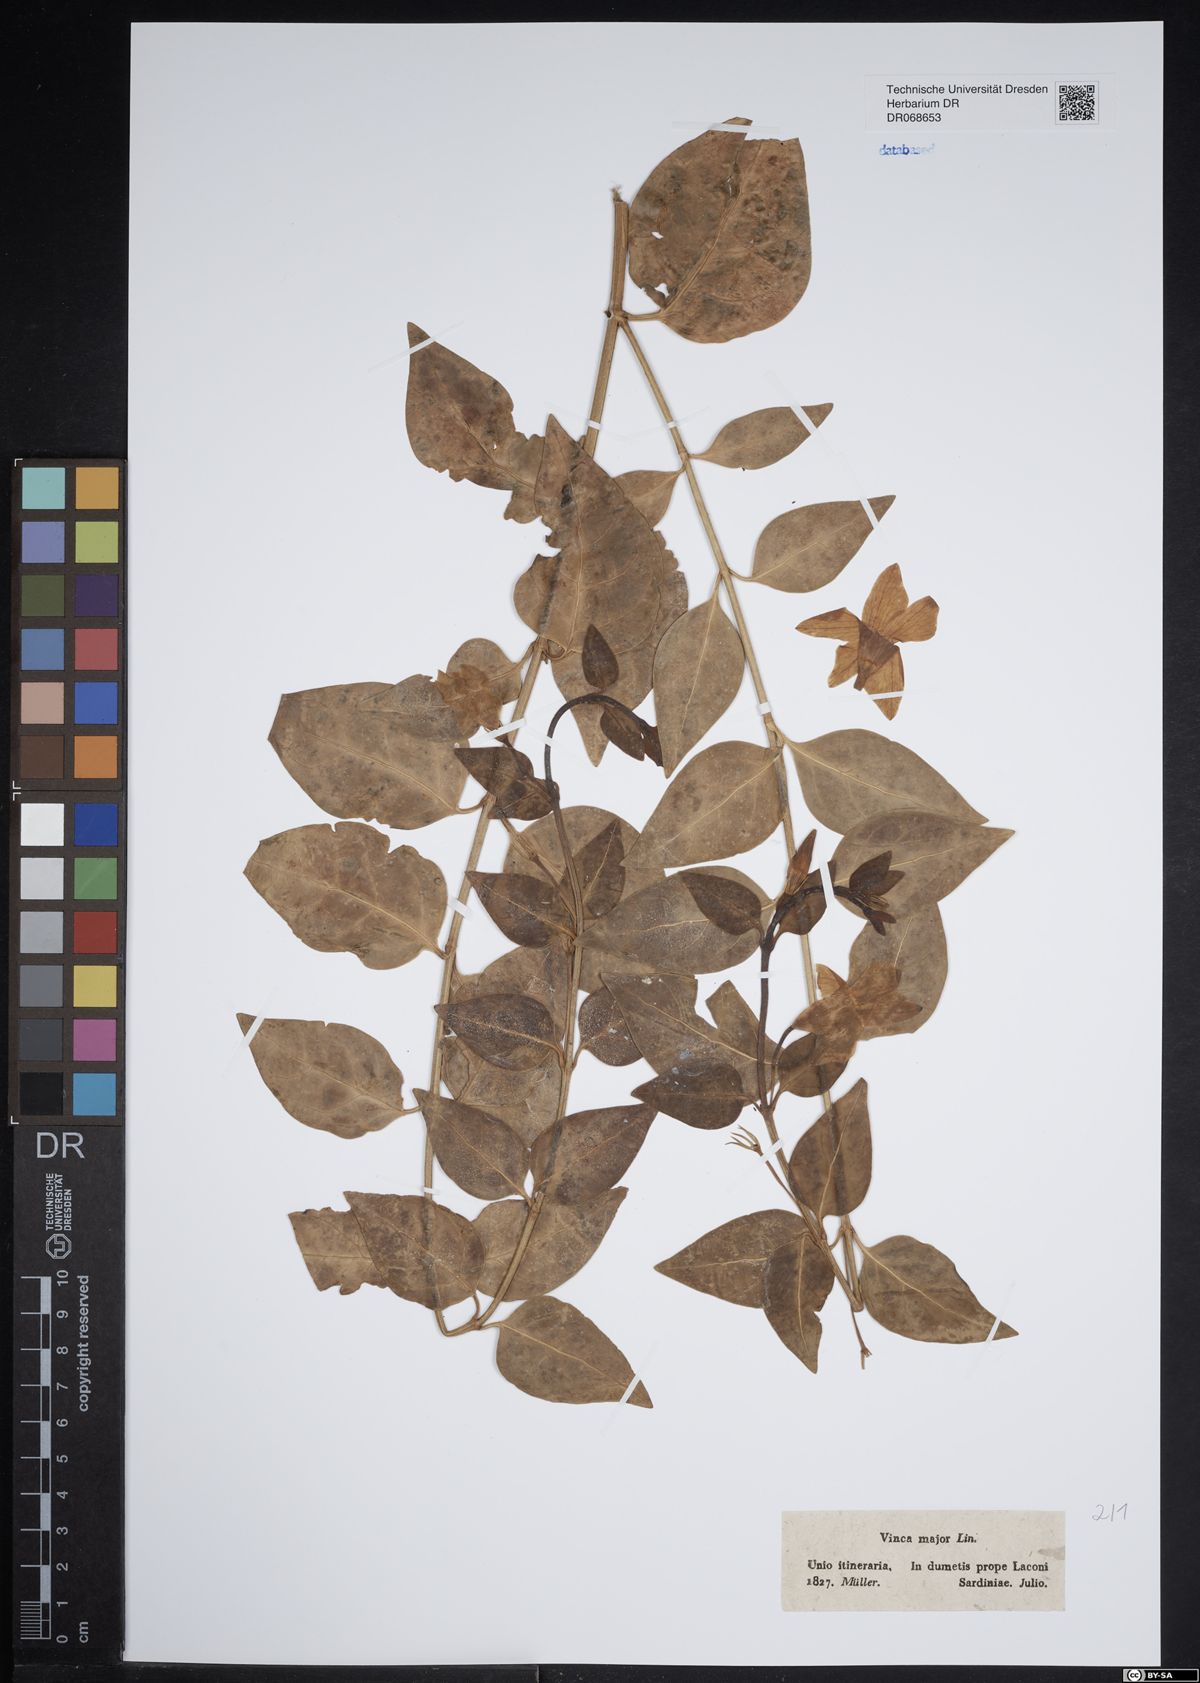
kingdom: Plantae
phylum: Tracheophyta
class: Magnoliopsida
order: Gentianales
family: Apocynaceae
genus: Vinca
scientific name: Vinca major
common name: Greater periwinkle
